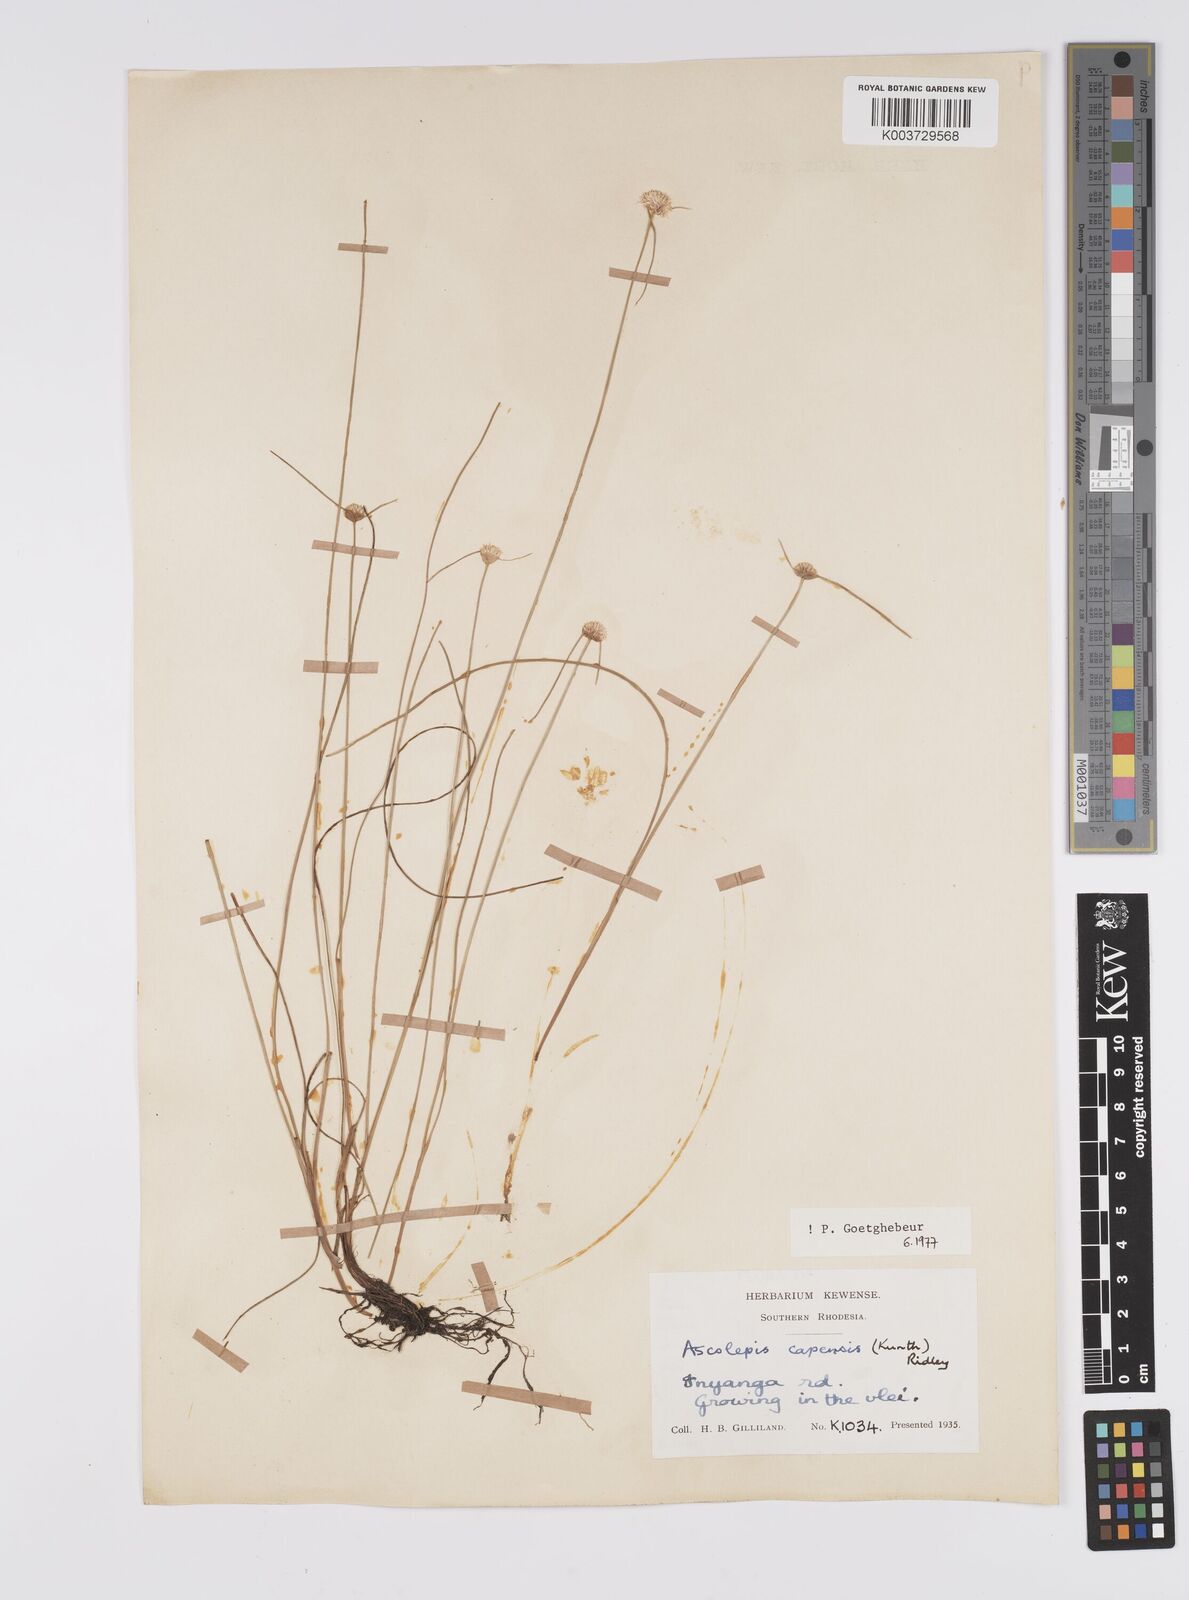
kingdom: Plantae
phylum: Tracheophyta
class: Liliopsida
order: Poales
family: Cyperaceae
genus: Cyperus
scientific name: Cyperus
